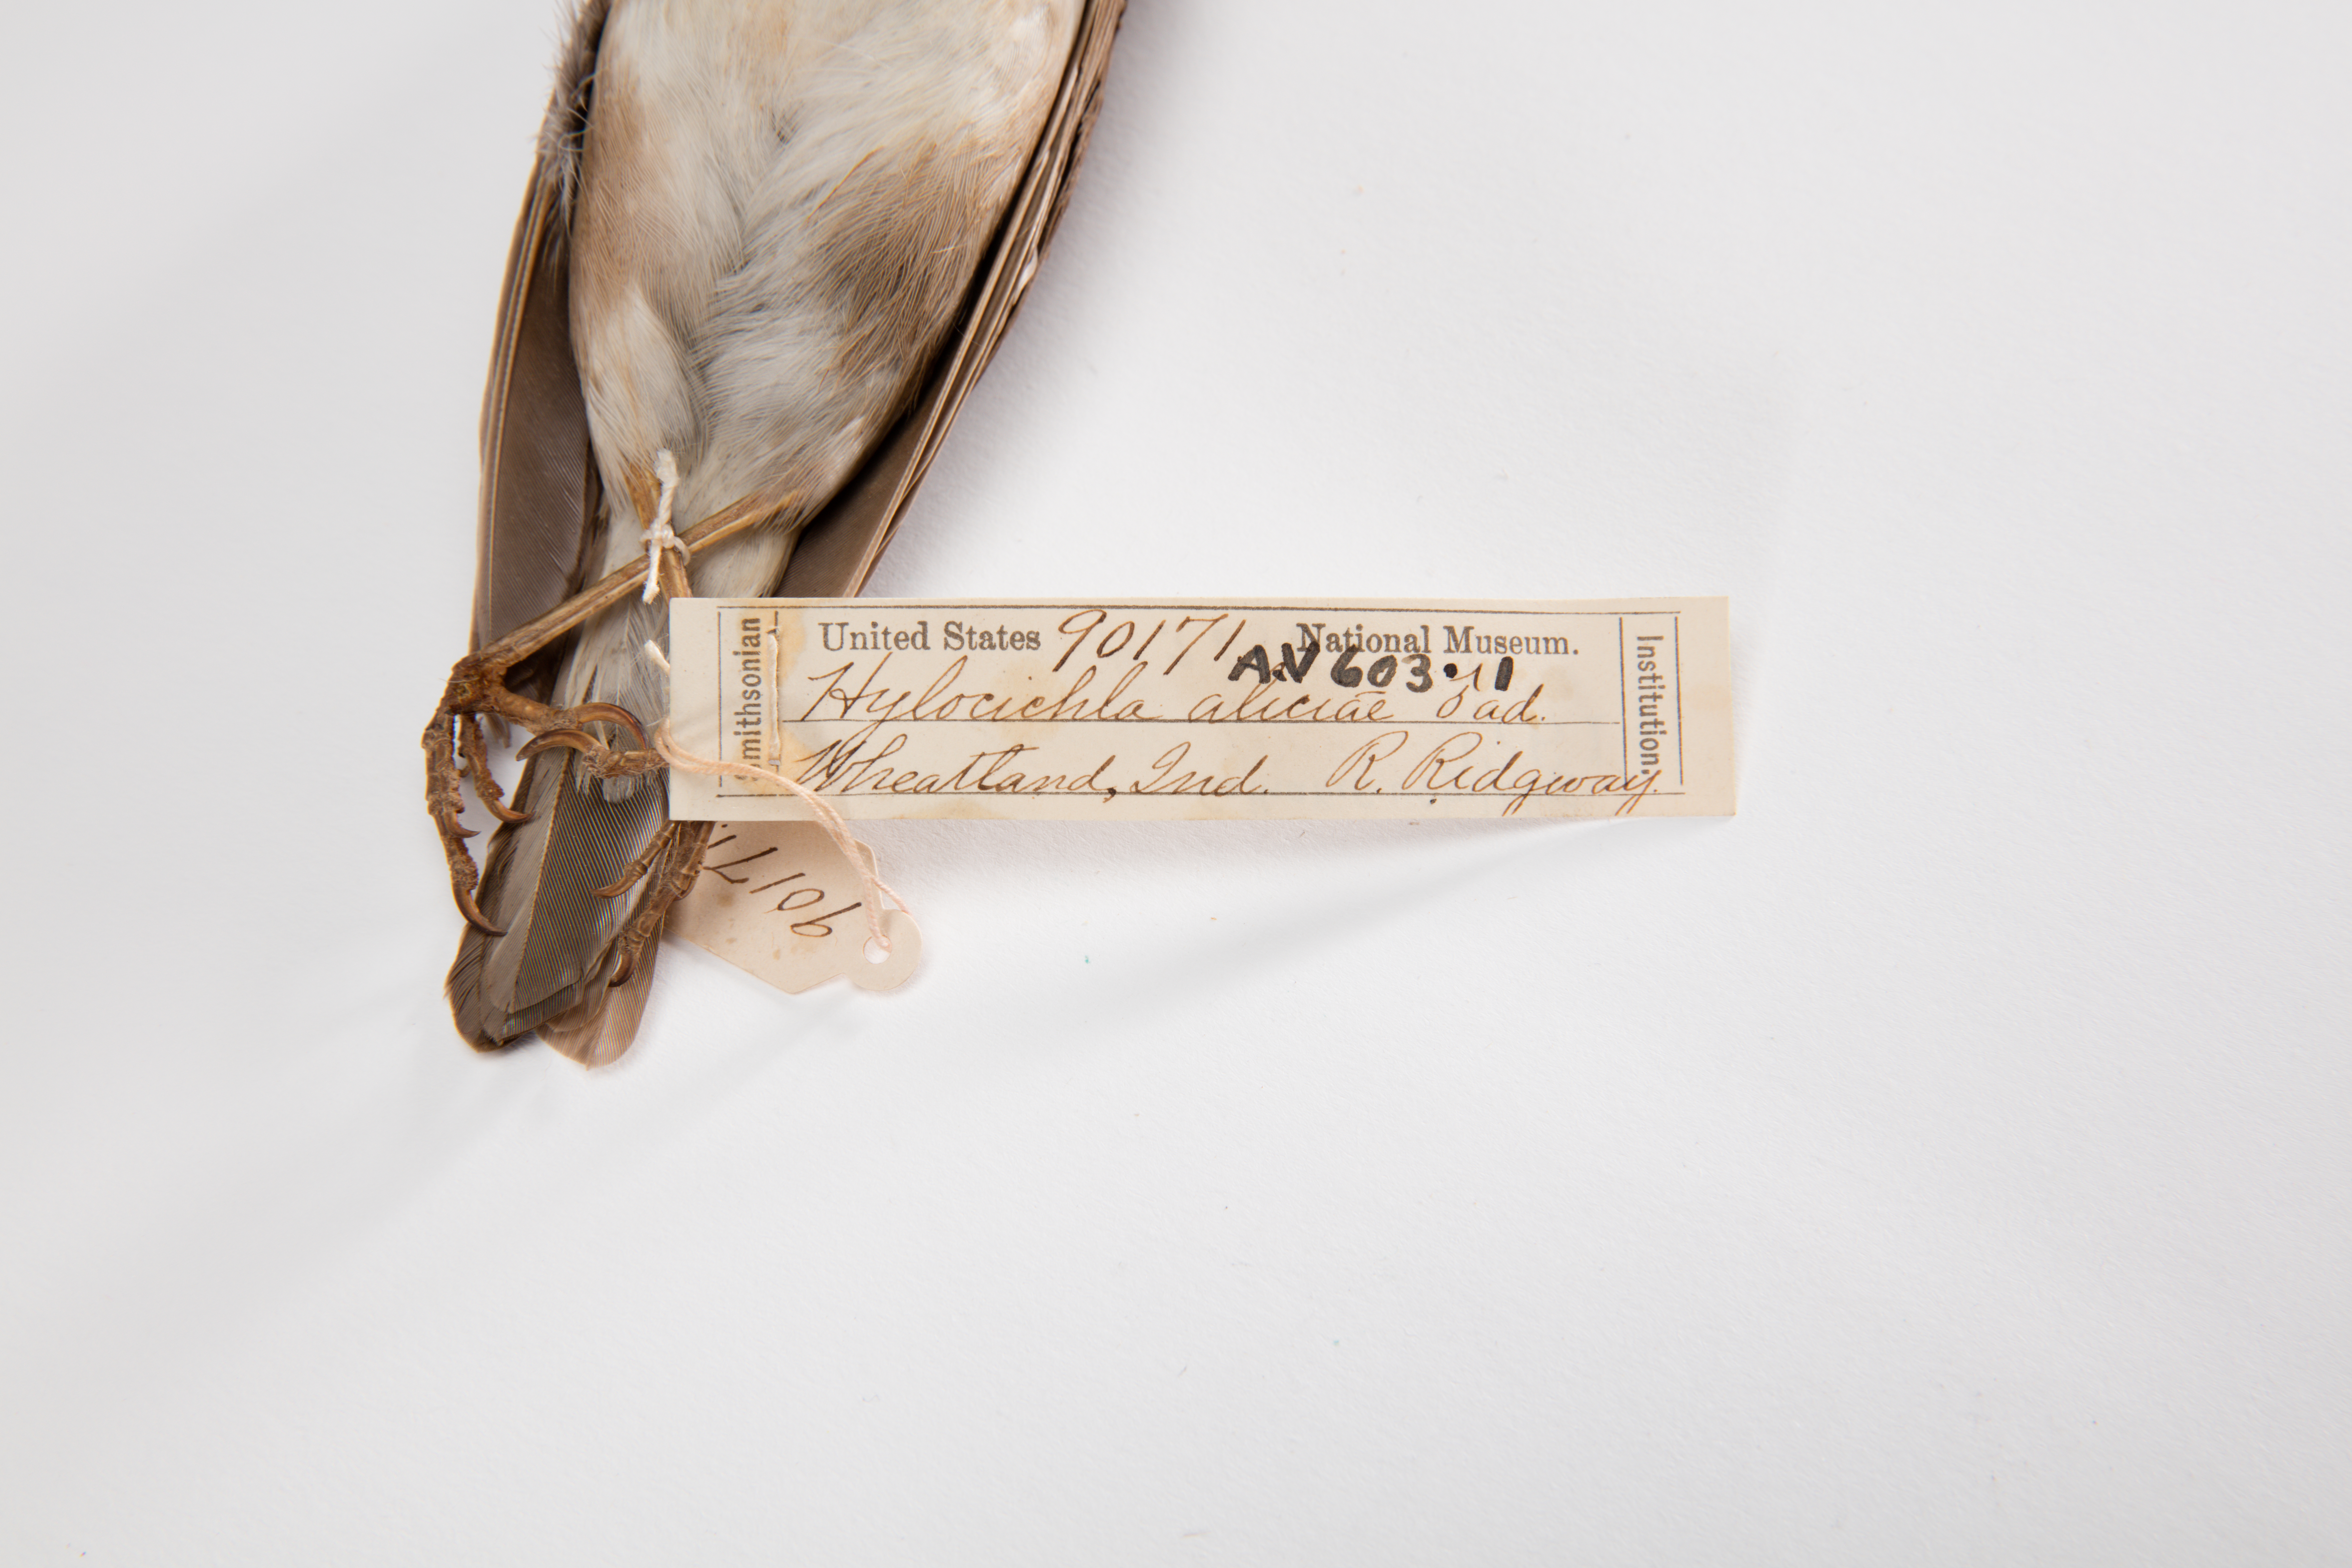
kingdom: Animalia
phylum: Chordata
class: Aves
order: Passeriformes
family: Turdidae
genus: Catharus
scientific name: Catharus ustulatus
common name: Swainson's thrush
